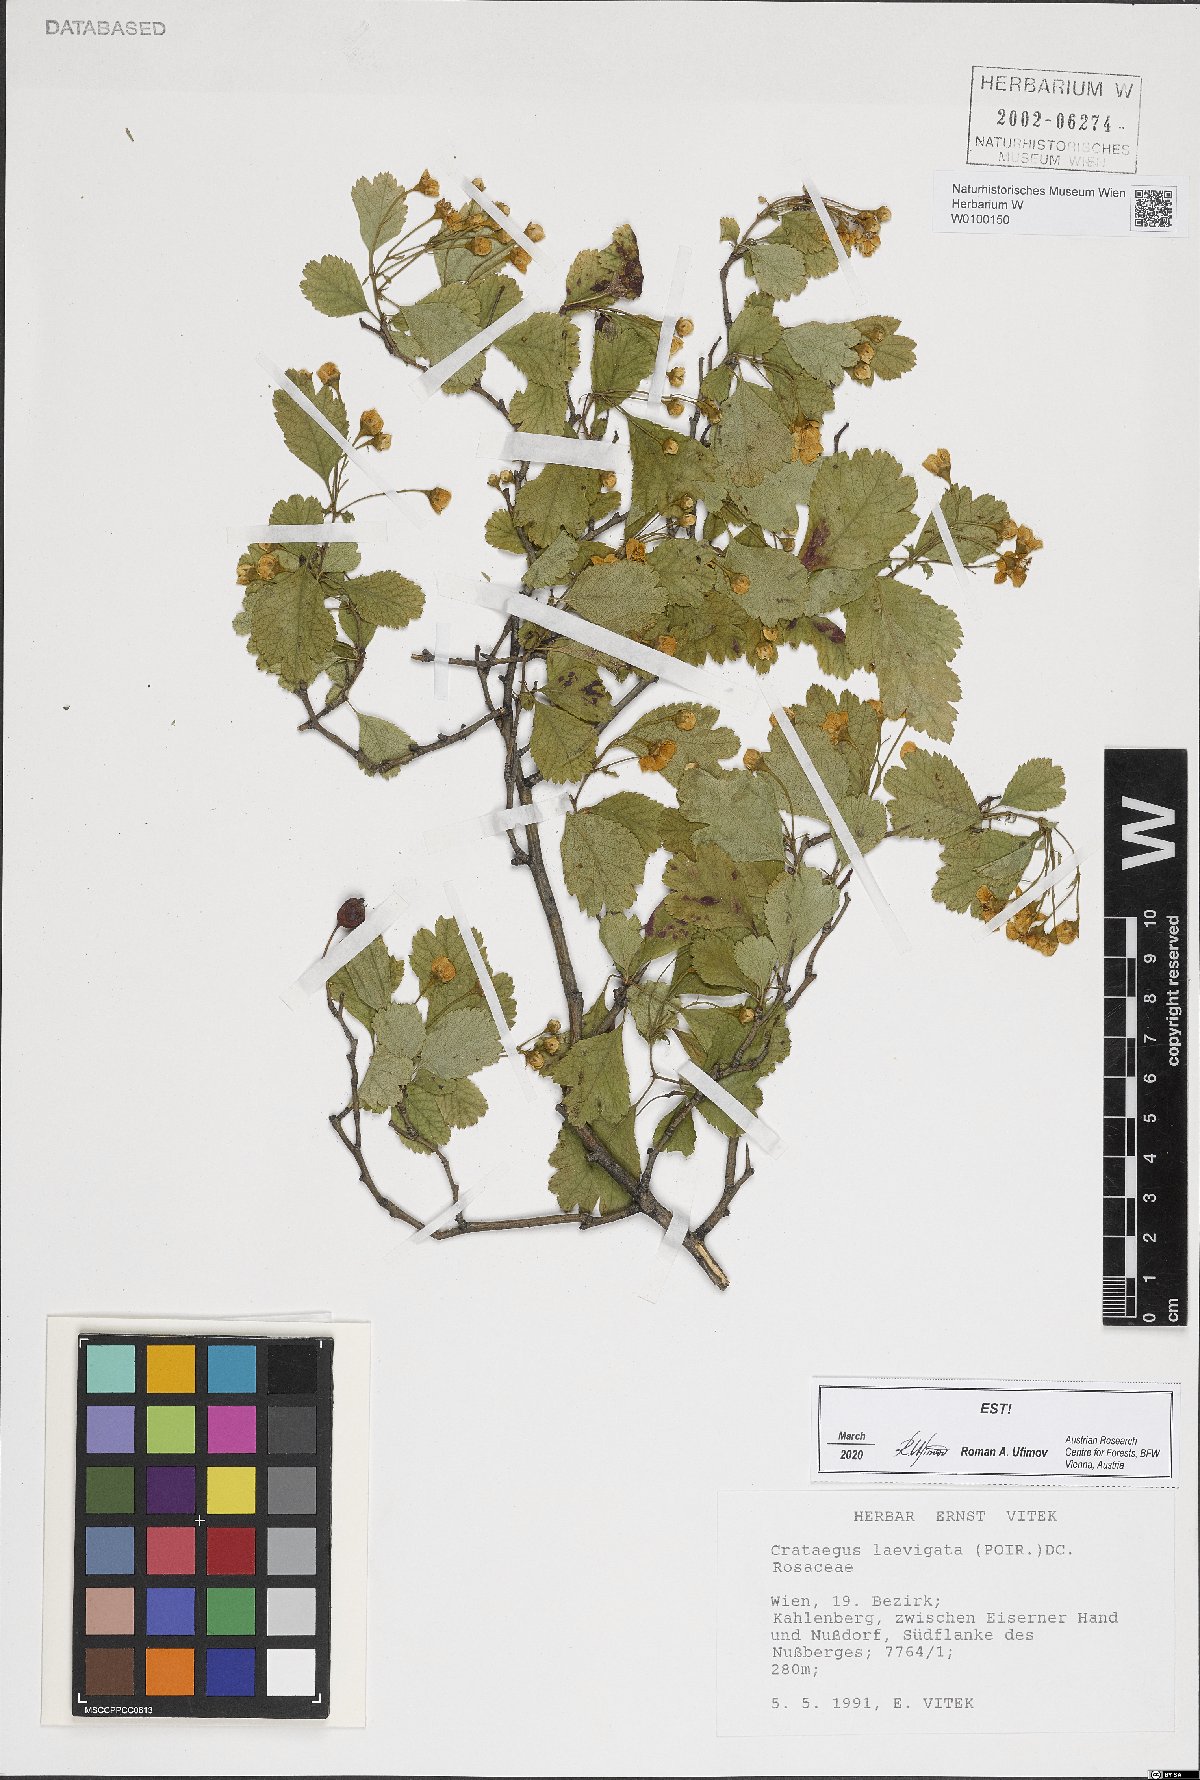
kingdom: Plantae
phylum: Tracheophyta
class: Magnoliopsida
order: Rosales
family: Rosaceae
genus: Crataegus
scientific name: Crataegus laevigata
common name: Midland hawthorn
